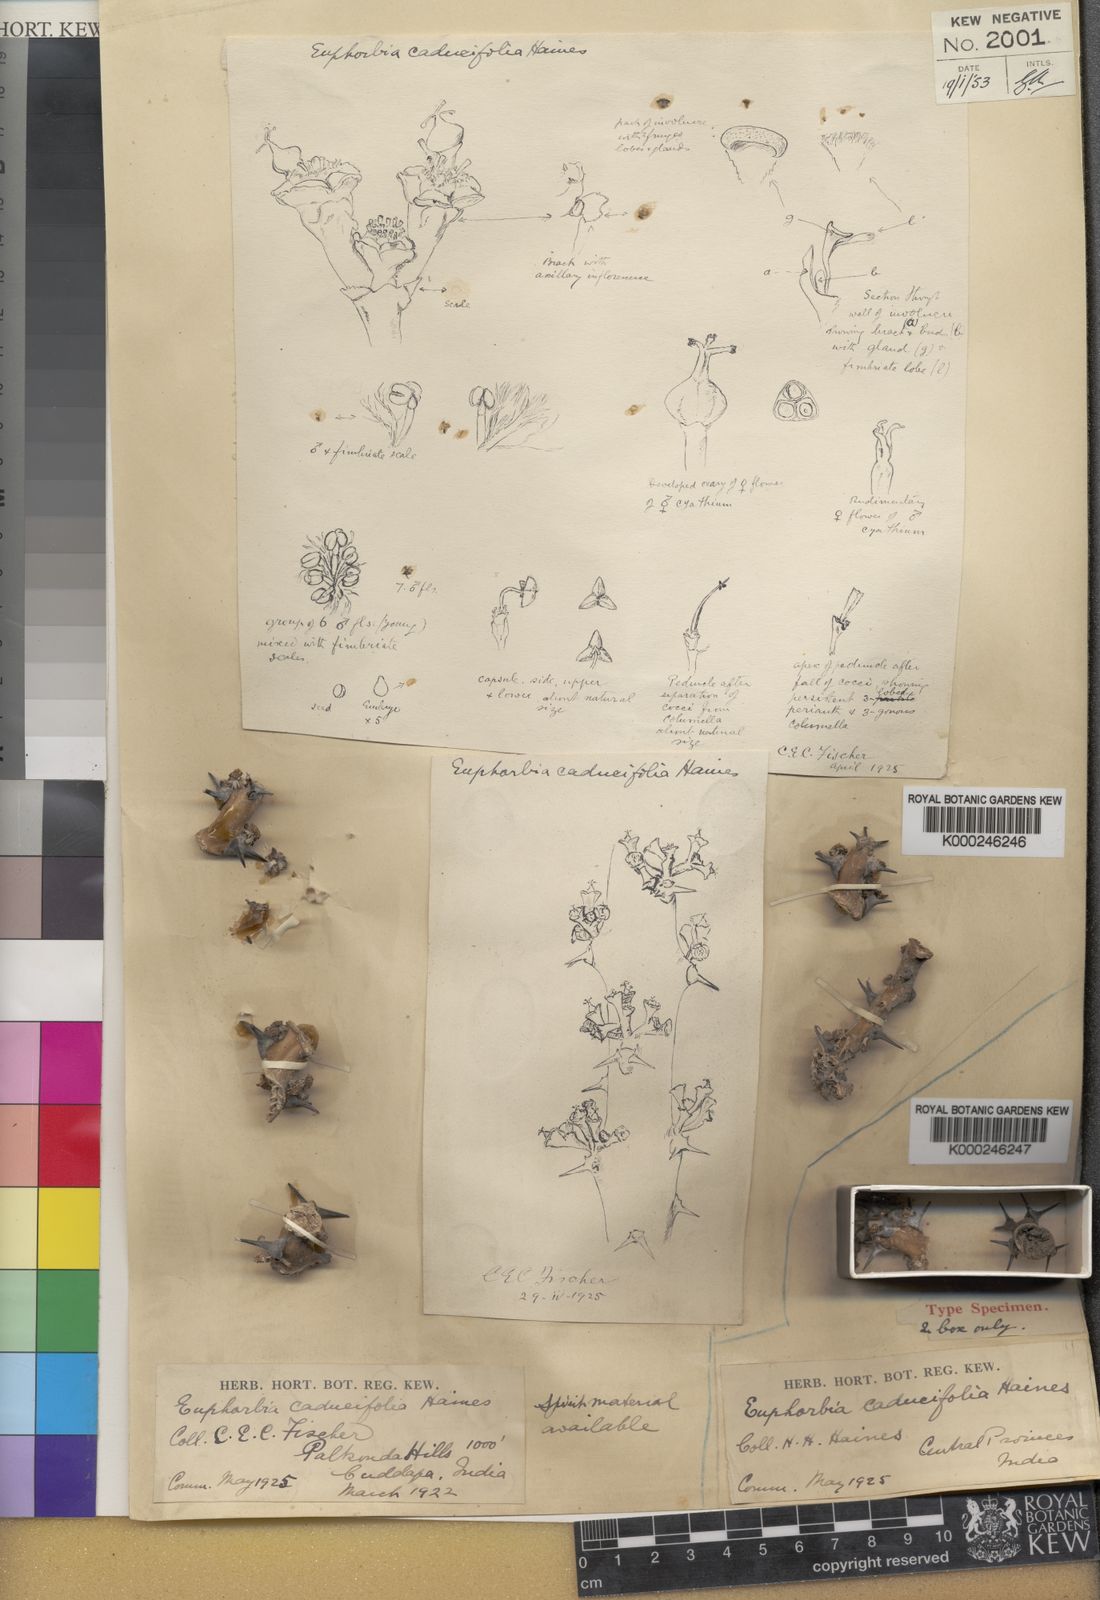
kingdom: Plantae
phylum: Tracheophyta
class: Magnoliopsida
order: Malpighiales
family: Euphorbiaceae
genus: Euphorbia
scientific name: Euphorbia caducifolia
